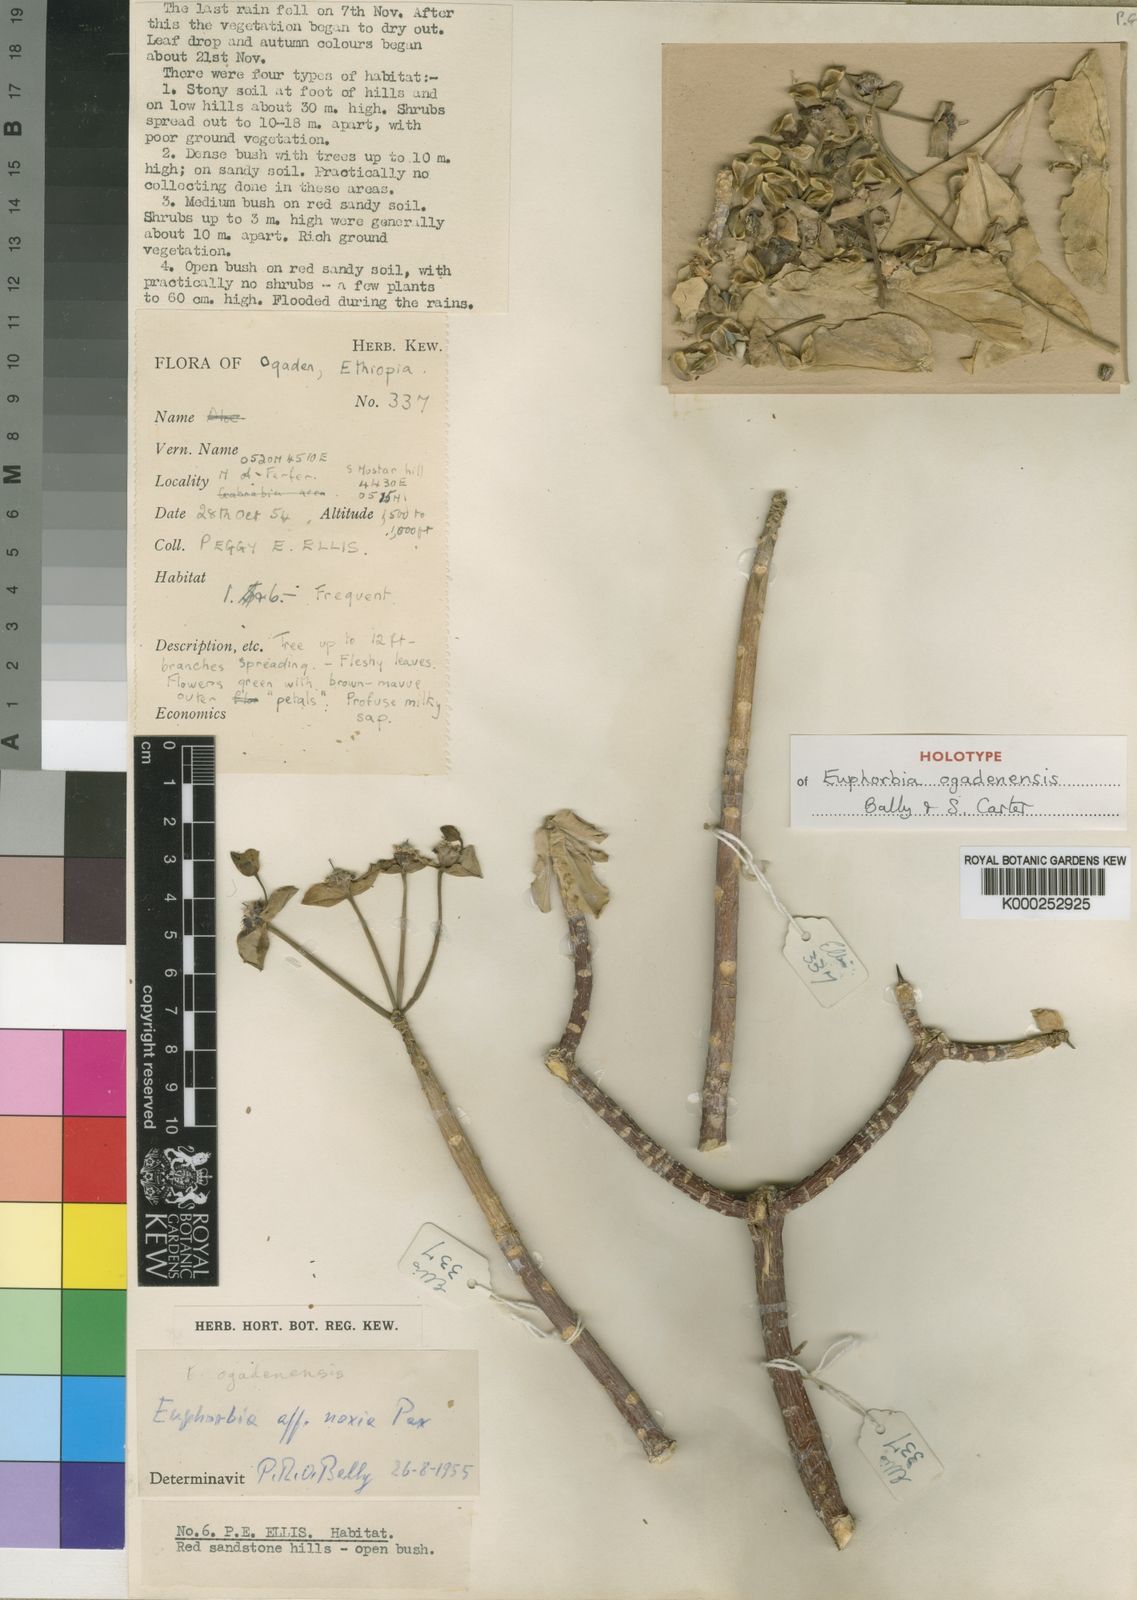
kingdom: Plantae
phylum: Tracheophyta
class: Magnoliopsida
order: Malpighiales
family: Euphorbiaceae
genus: Euphorbia
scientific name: Euphorbia ogadenensis
